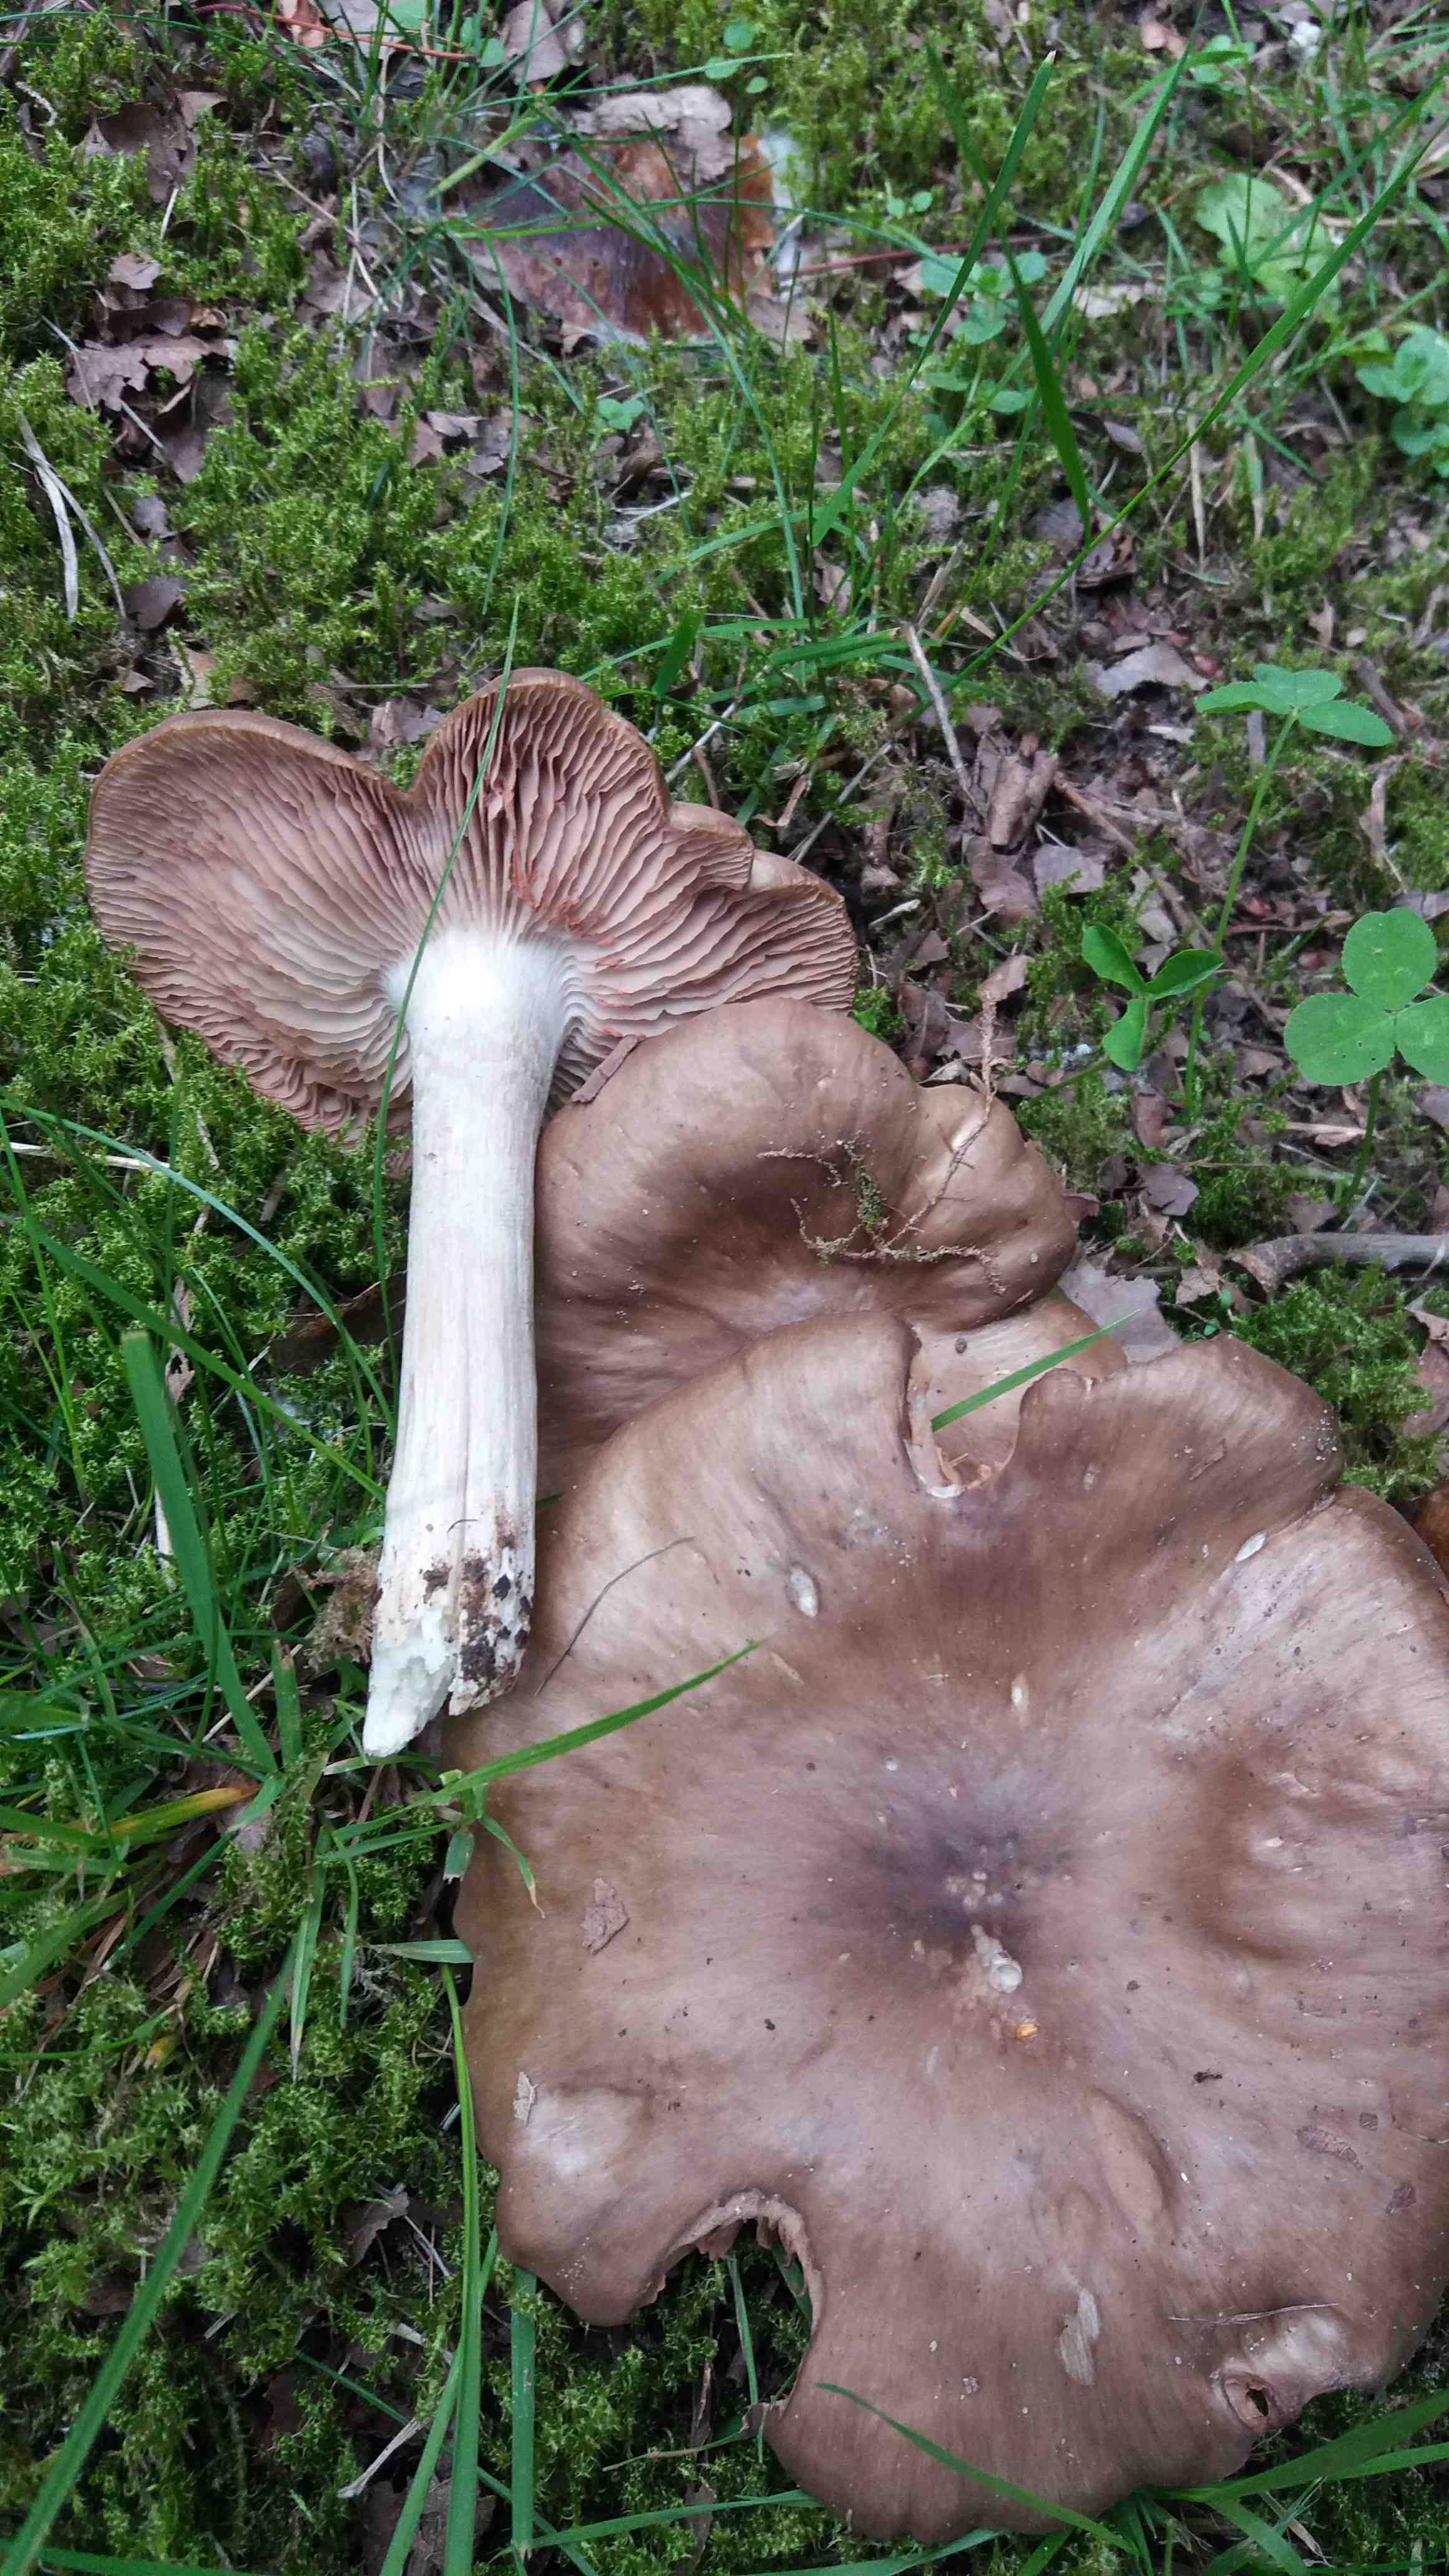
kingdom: Fungi
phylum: Basidiomycota
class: Agaricomycetes
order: Agaricales
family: Entolomataceae
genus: Entoloma
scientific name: Entoloma
